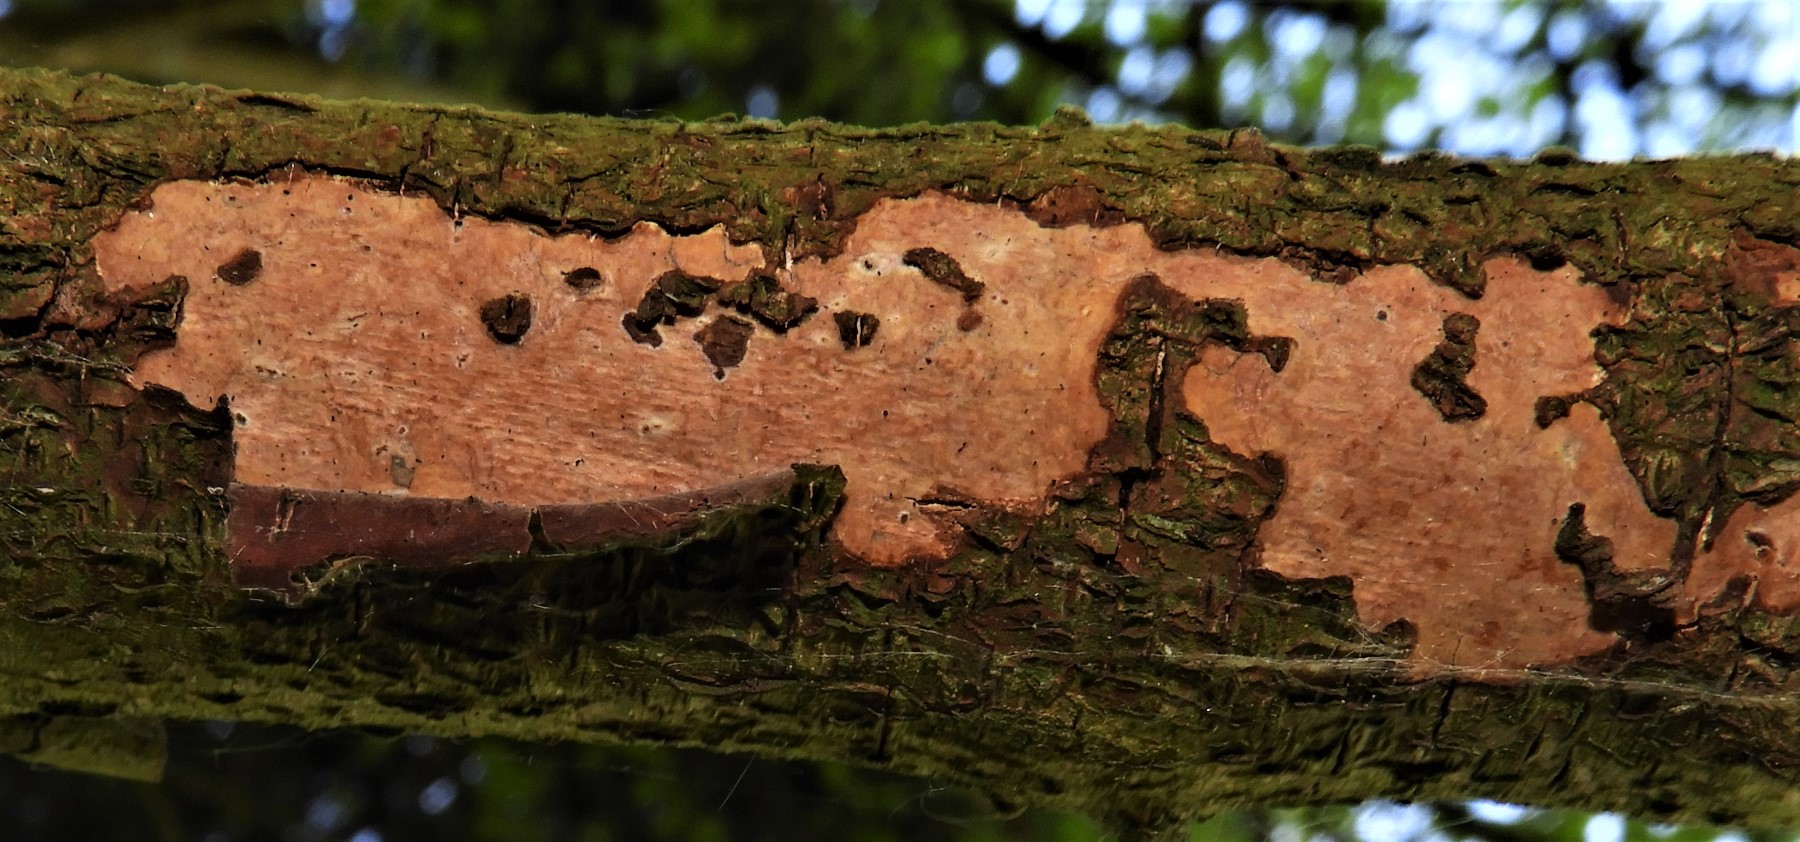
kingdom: Fungi
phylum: Basidiomycota
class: Agaricomycetes
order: Corticiales
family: Vuilleminiaceae
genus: Vuilleminia
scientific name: Vuilleminia coryli
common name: hassel-barksprænger
